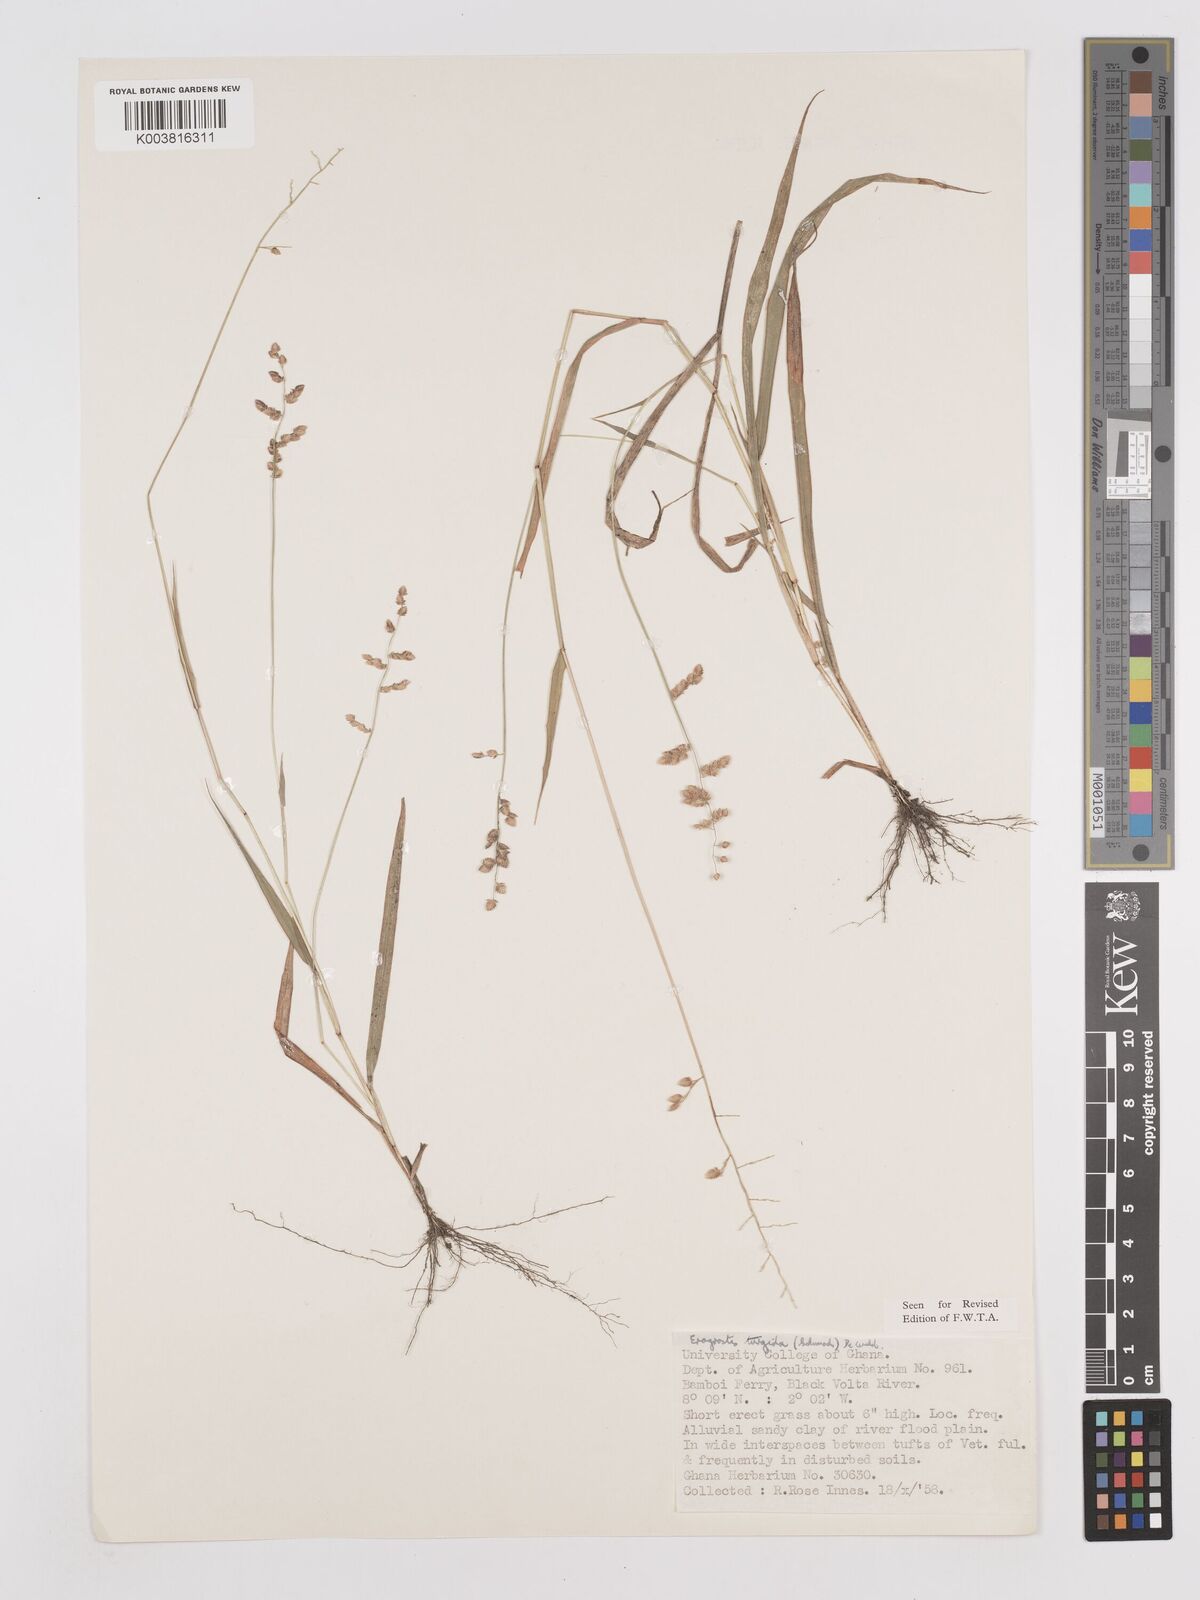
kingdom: Plantae
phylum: Tracheophyta
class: Liliopsida
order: Poales
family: Poaceae
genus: Eragrostis
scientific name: Eragrostis turgida
